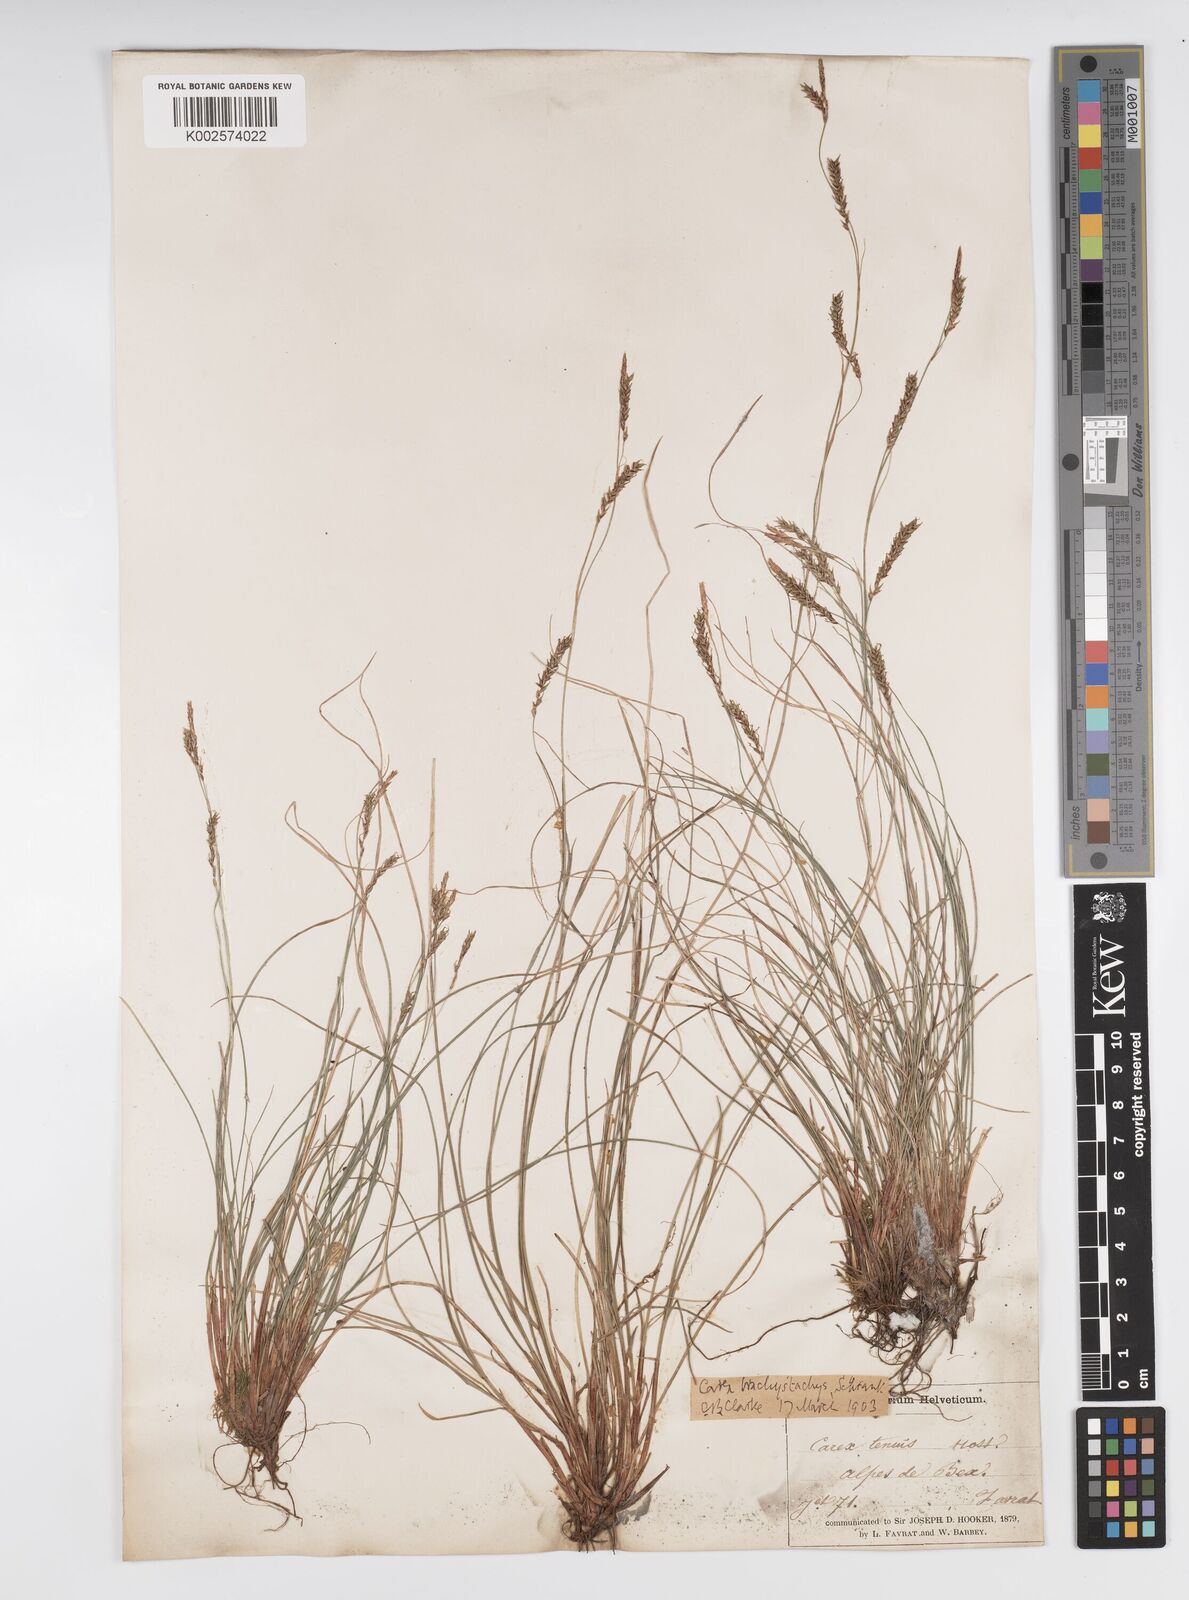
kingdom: Plantae
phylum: Tracheophyta
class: Liliopsida
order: Poales
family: Cyperaceae
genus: Carex
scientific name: Carex brachystachys
